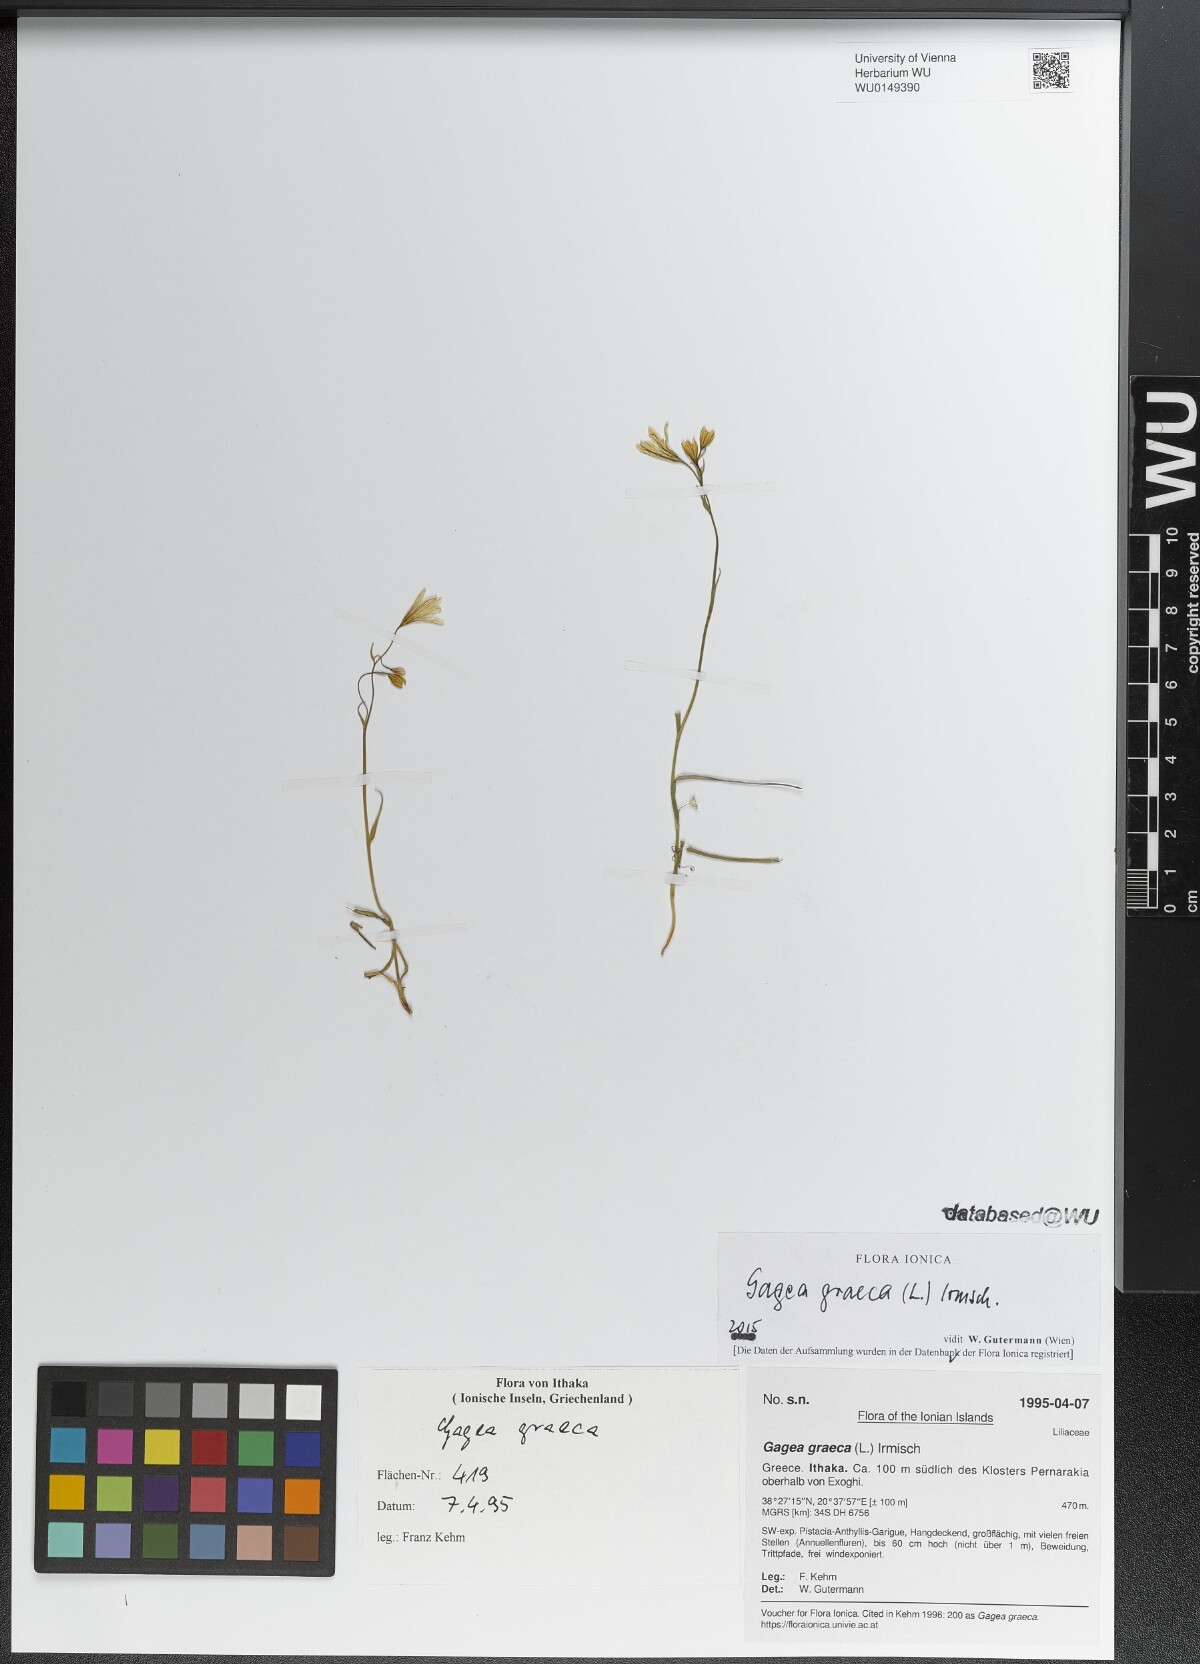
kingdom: Plantae
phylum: Tracheophyta
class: Liliopsida
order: Liliales
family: Liliaceae
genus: Gagea
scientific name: Gagea graeca
